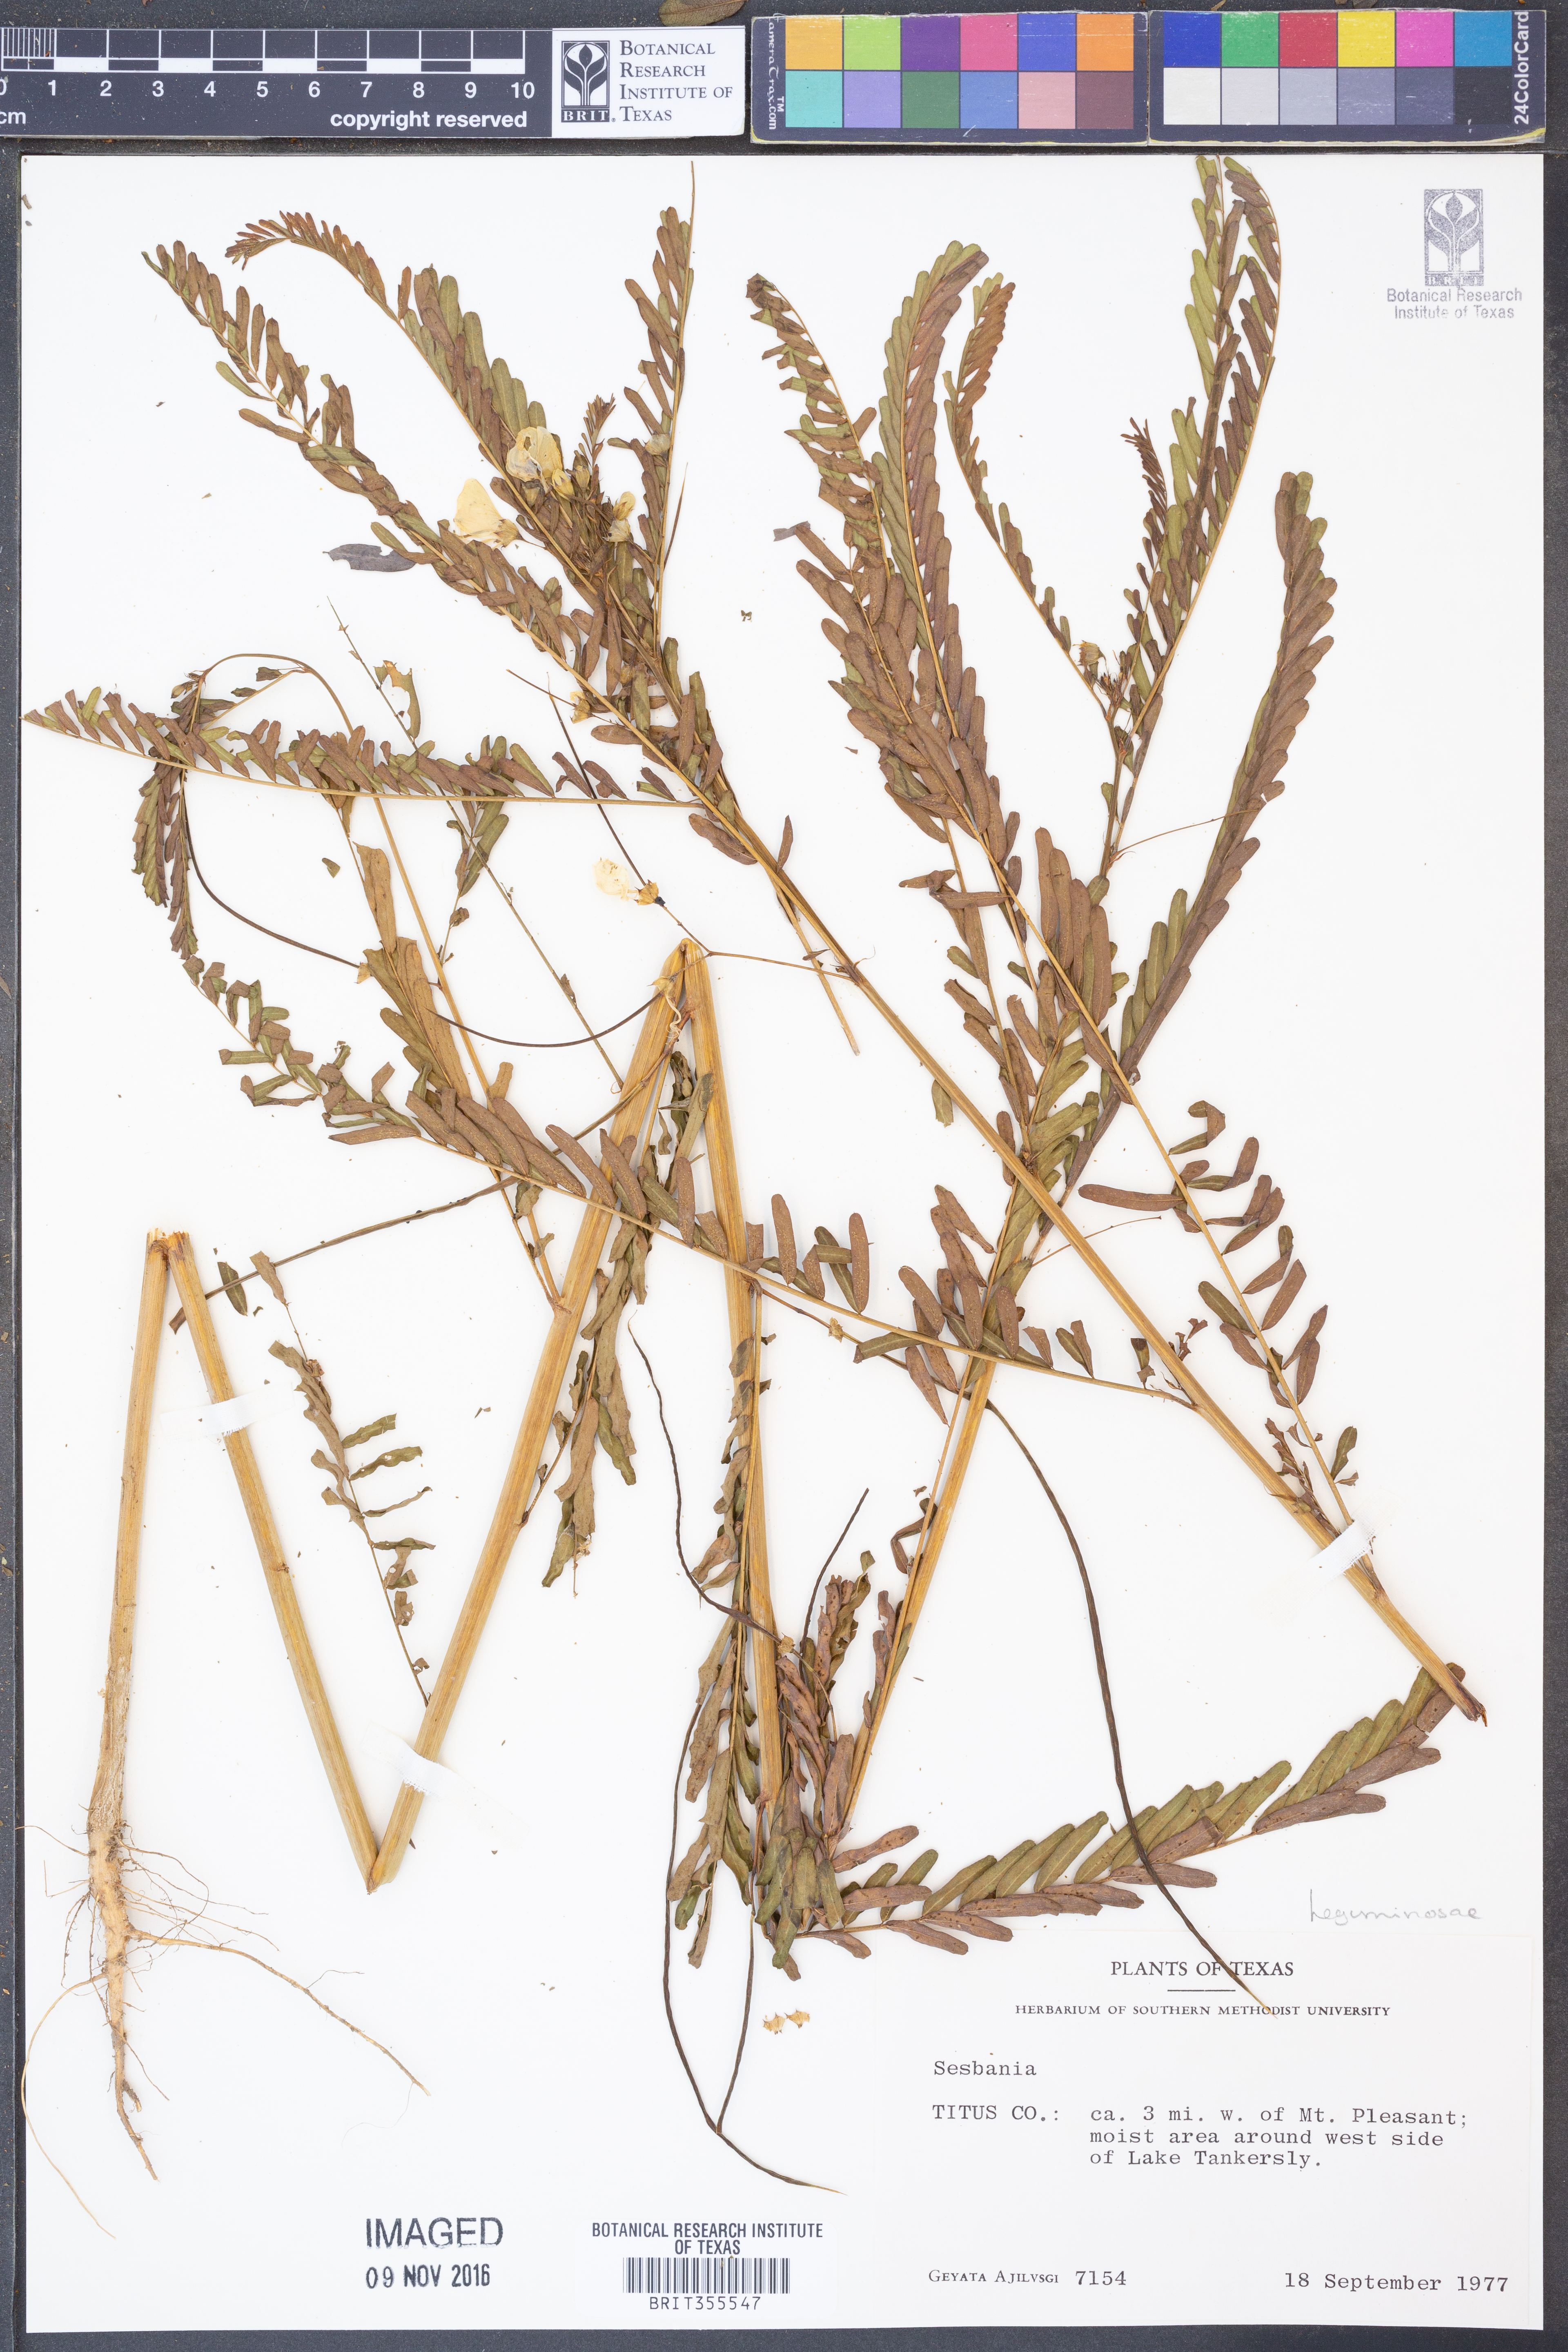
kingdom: Plantae
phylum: Tracheophyta
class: Magnoliopsida
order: Fabales
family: Fabaceae
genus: Sesbania
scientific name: Sesbania
